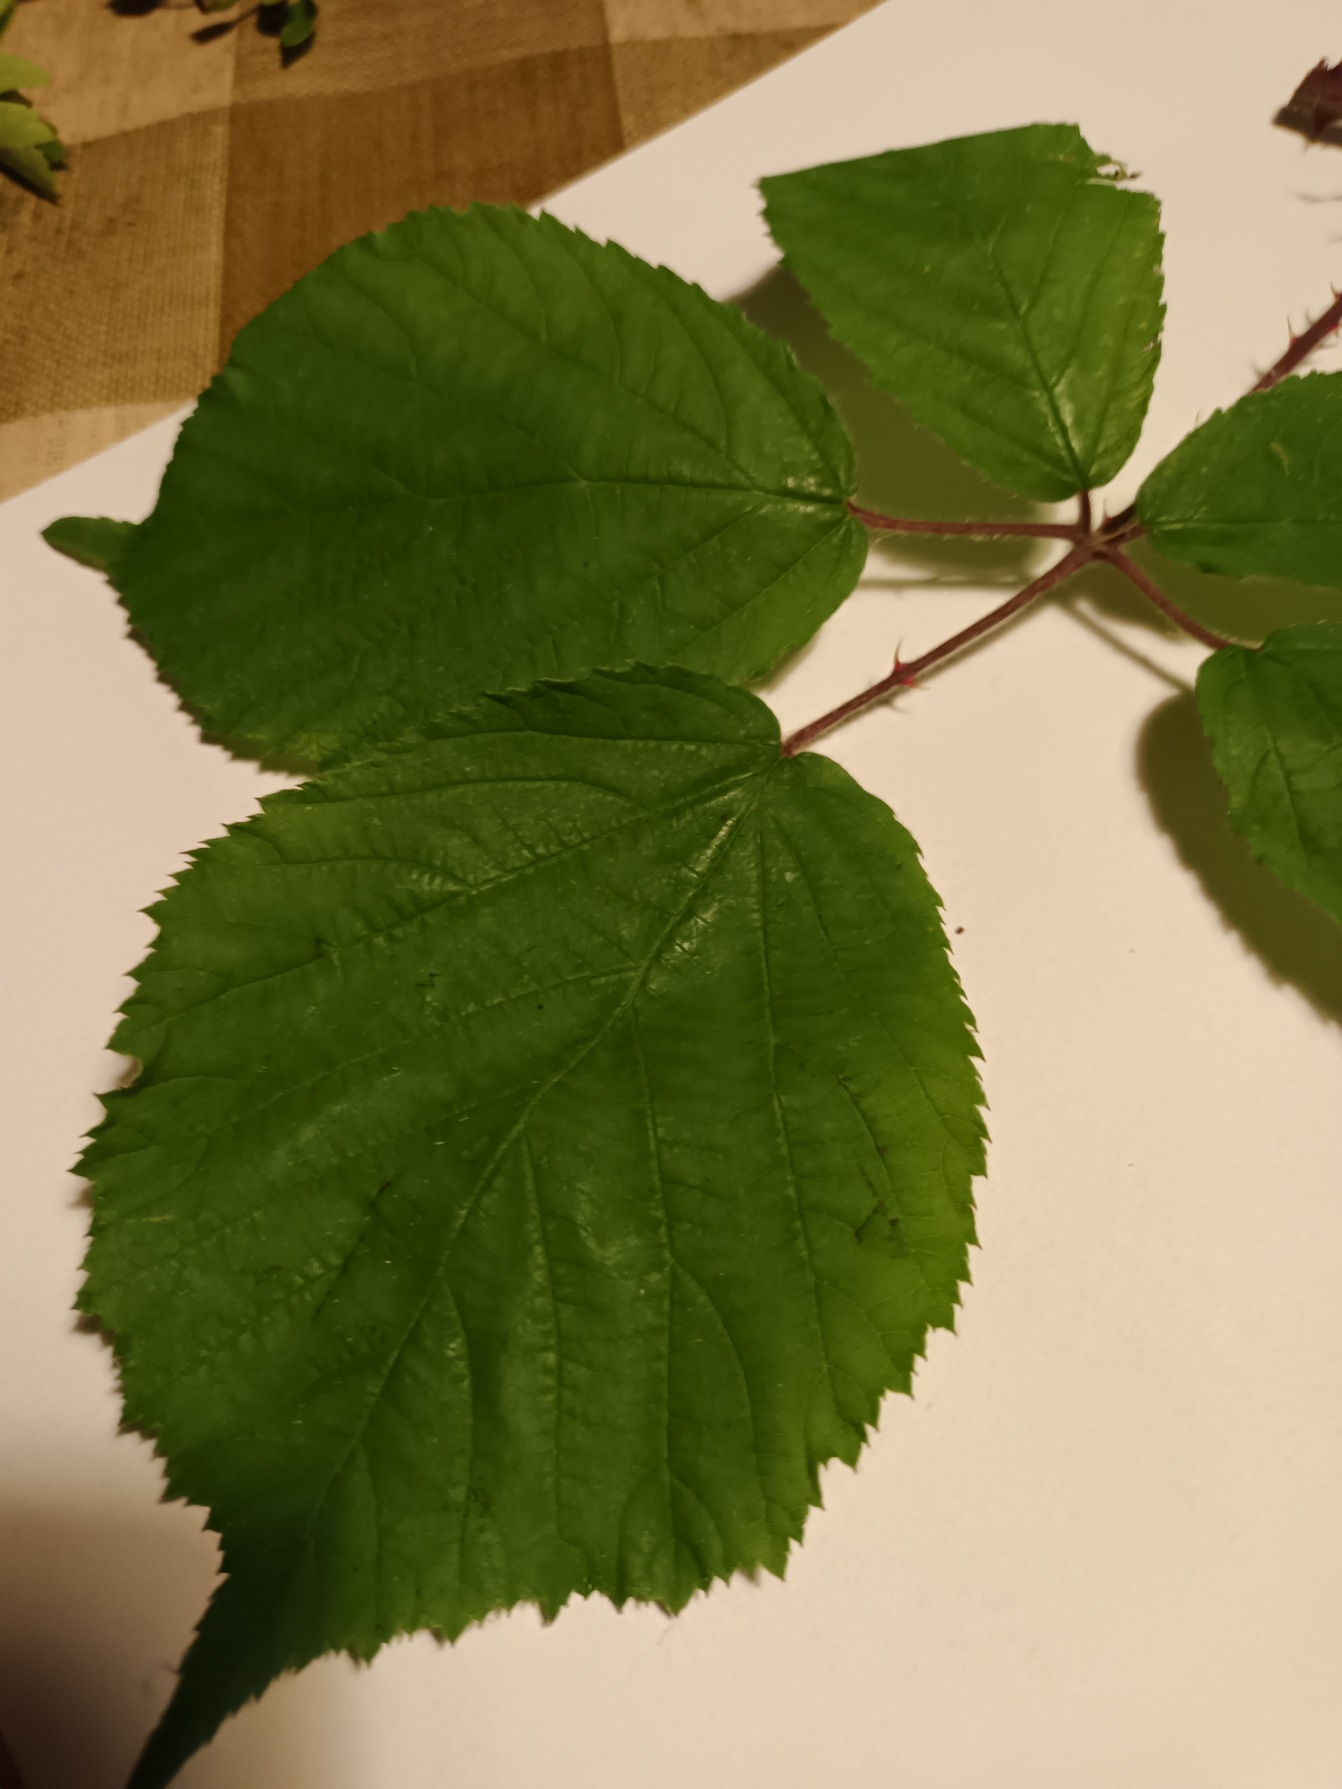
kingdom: Plantae
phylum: Tracheophyta
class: Magnoliopsida
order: Rosales
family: Rosaceae
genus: Rubus
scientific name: Rubus cimbricus
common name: Kimbrisk brombær
